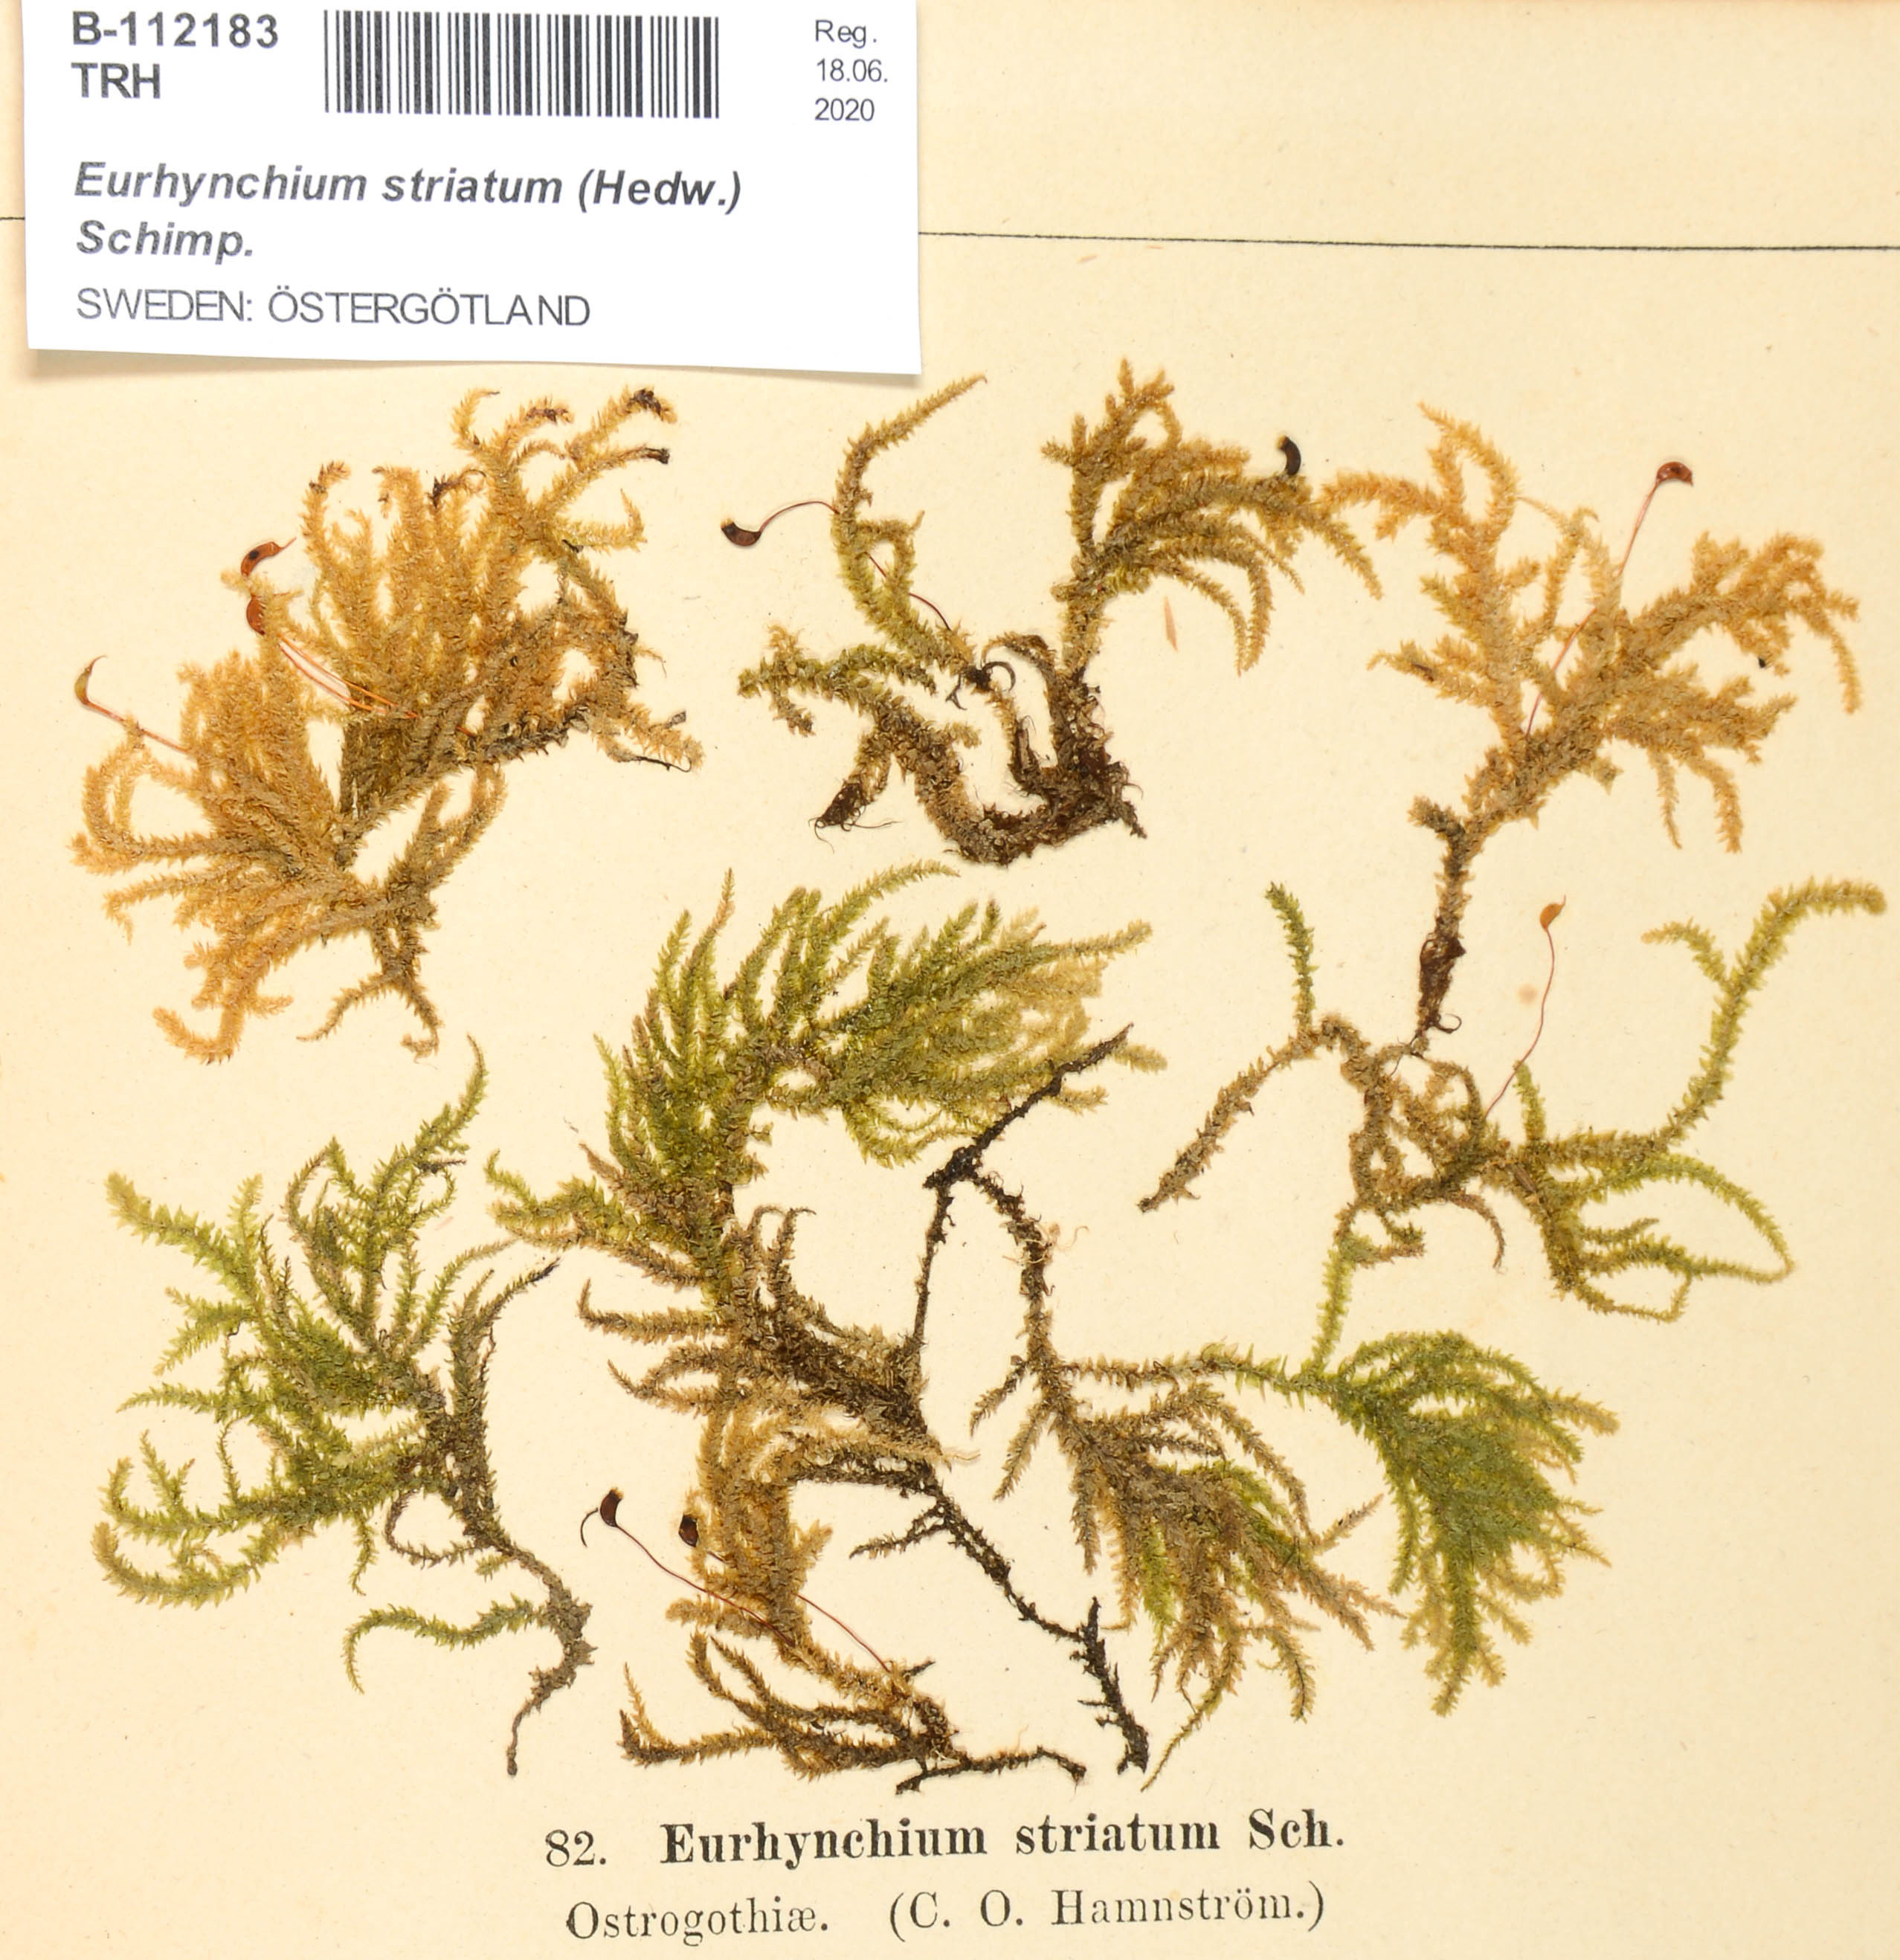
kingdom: Plantae
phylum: Bryophyta
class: Bryopsida
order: Hypnales
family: Brachytheciaceae
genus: Eurhynchium
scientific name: Eurhynchium striatum
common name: Common striated feather-moss
